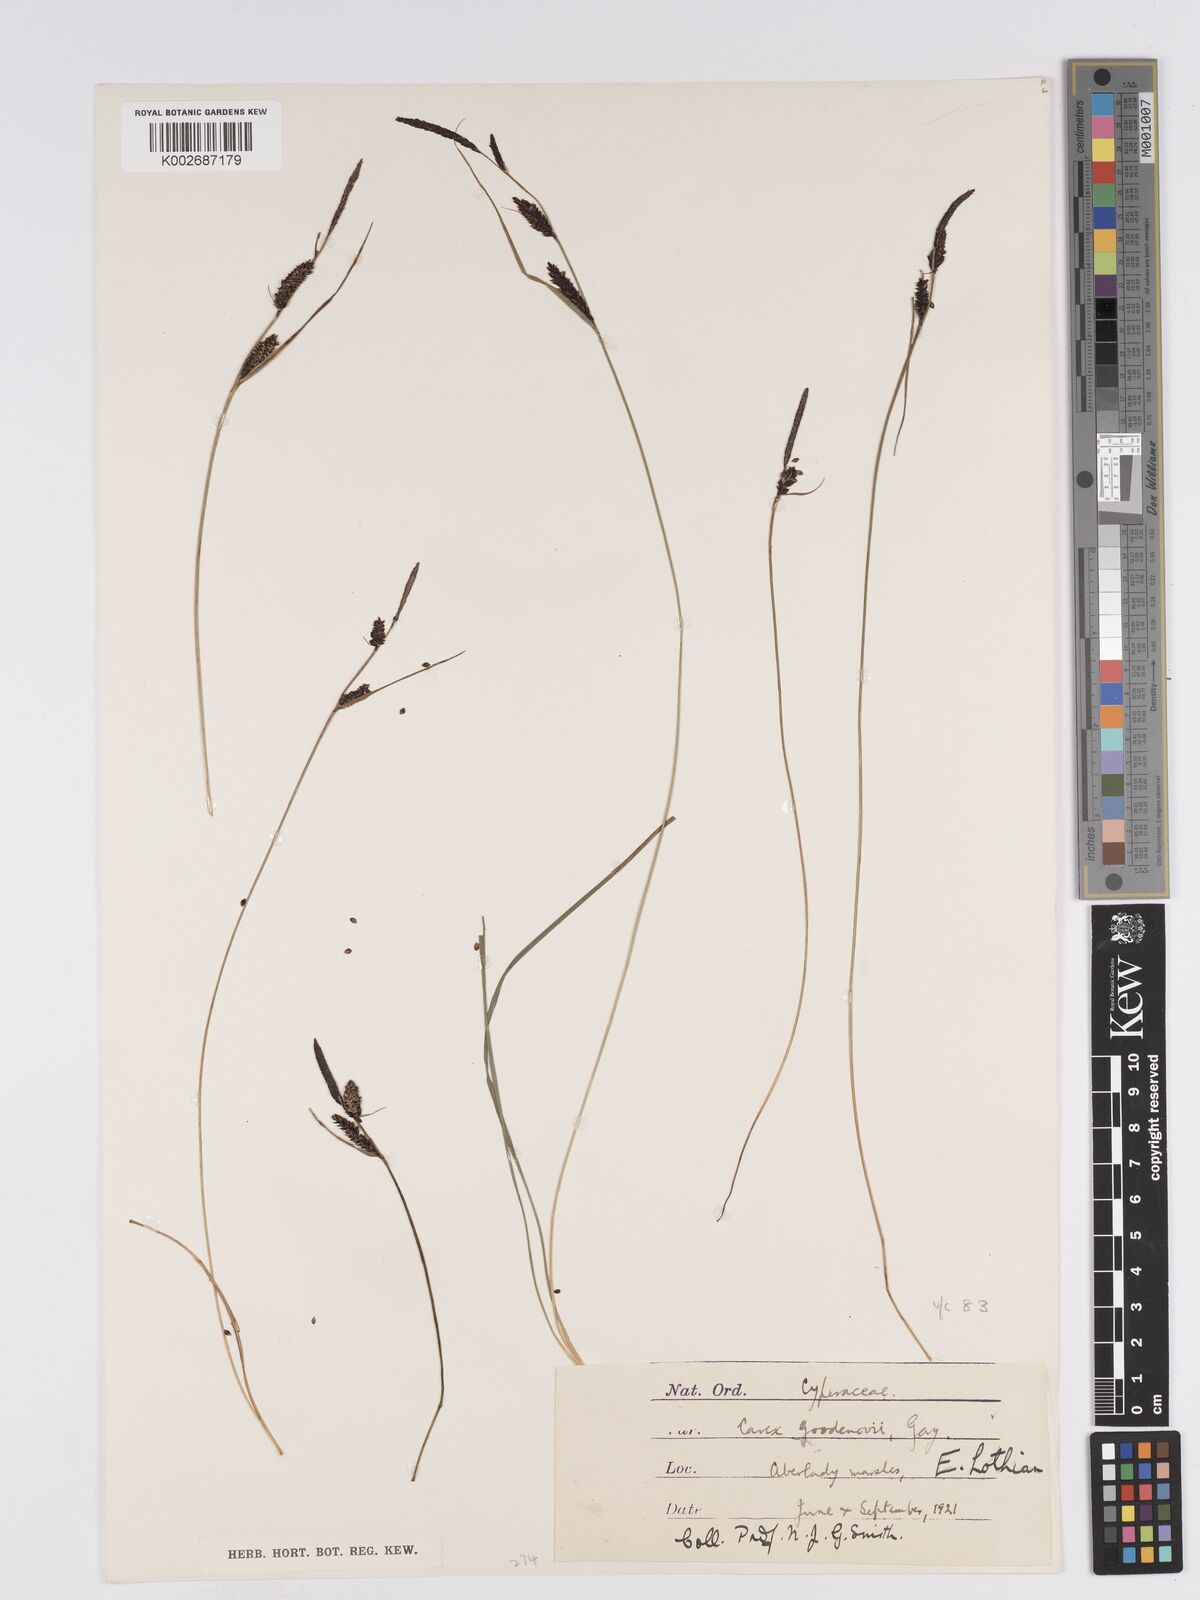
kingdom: Plantae
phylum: Tracheophyta
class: Liliopsida
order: Poales
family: Cyperaceae
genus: Carex
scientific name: Carex nigra
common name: Common sedge
